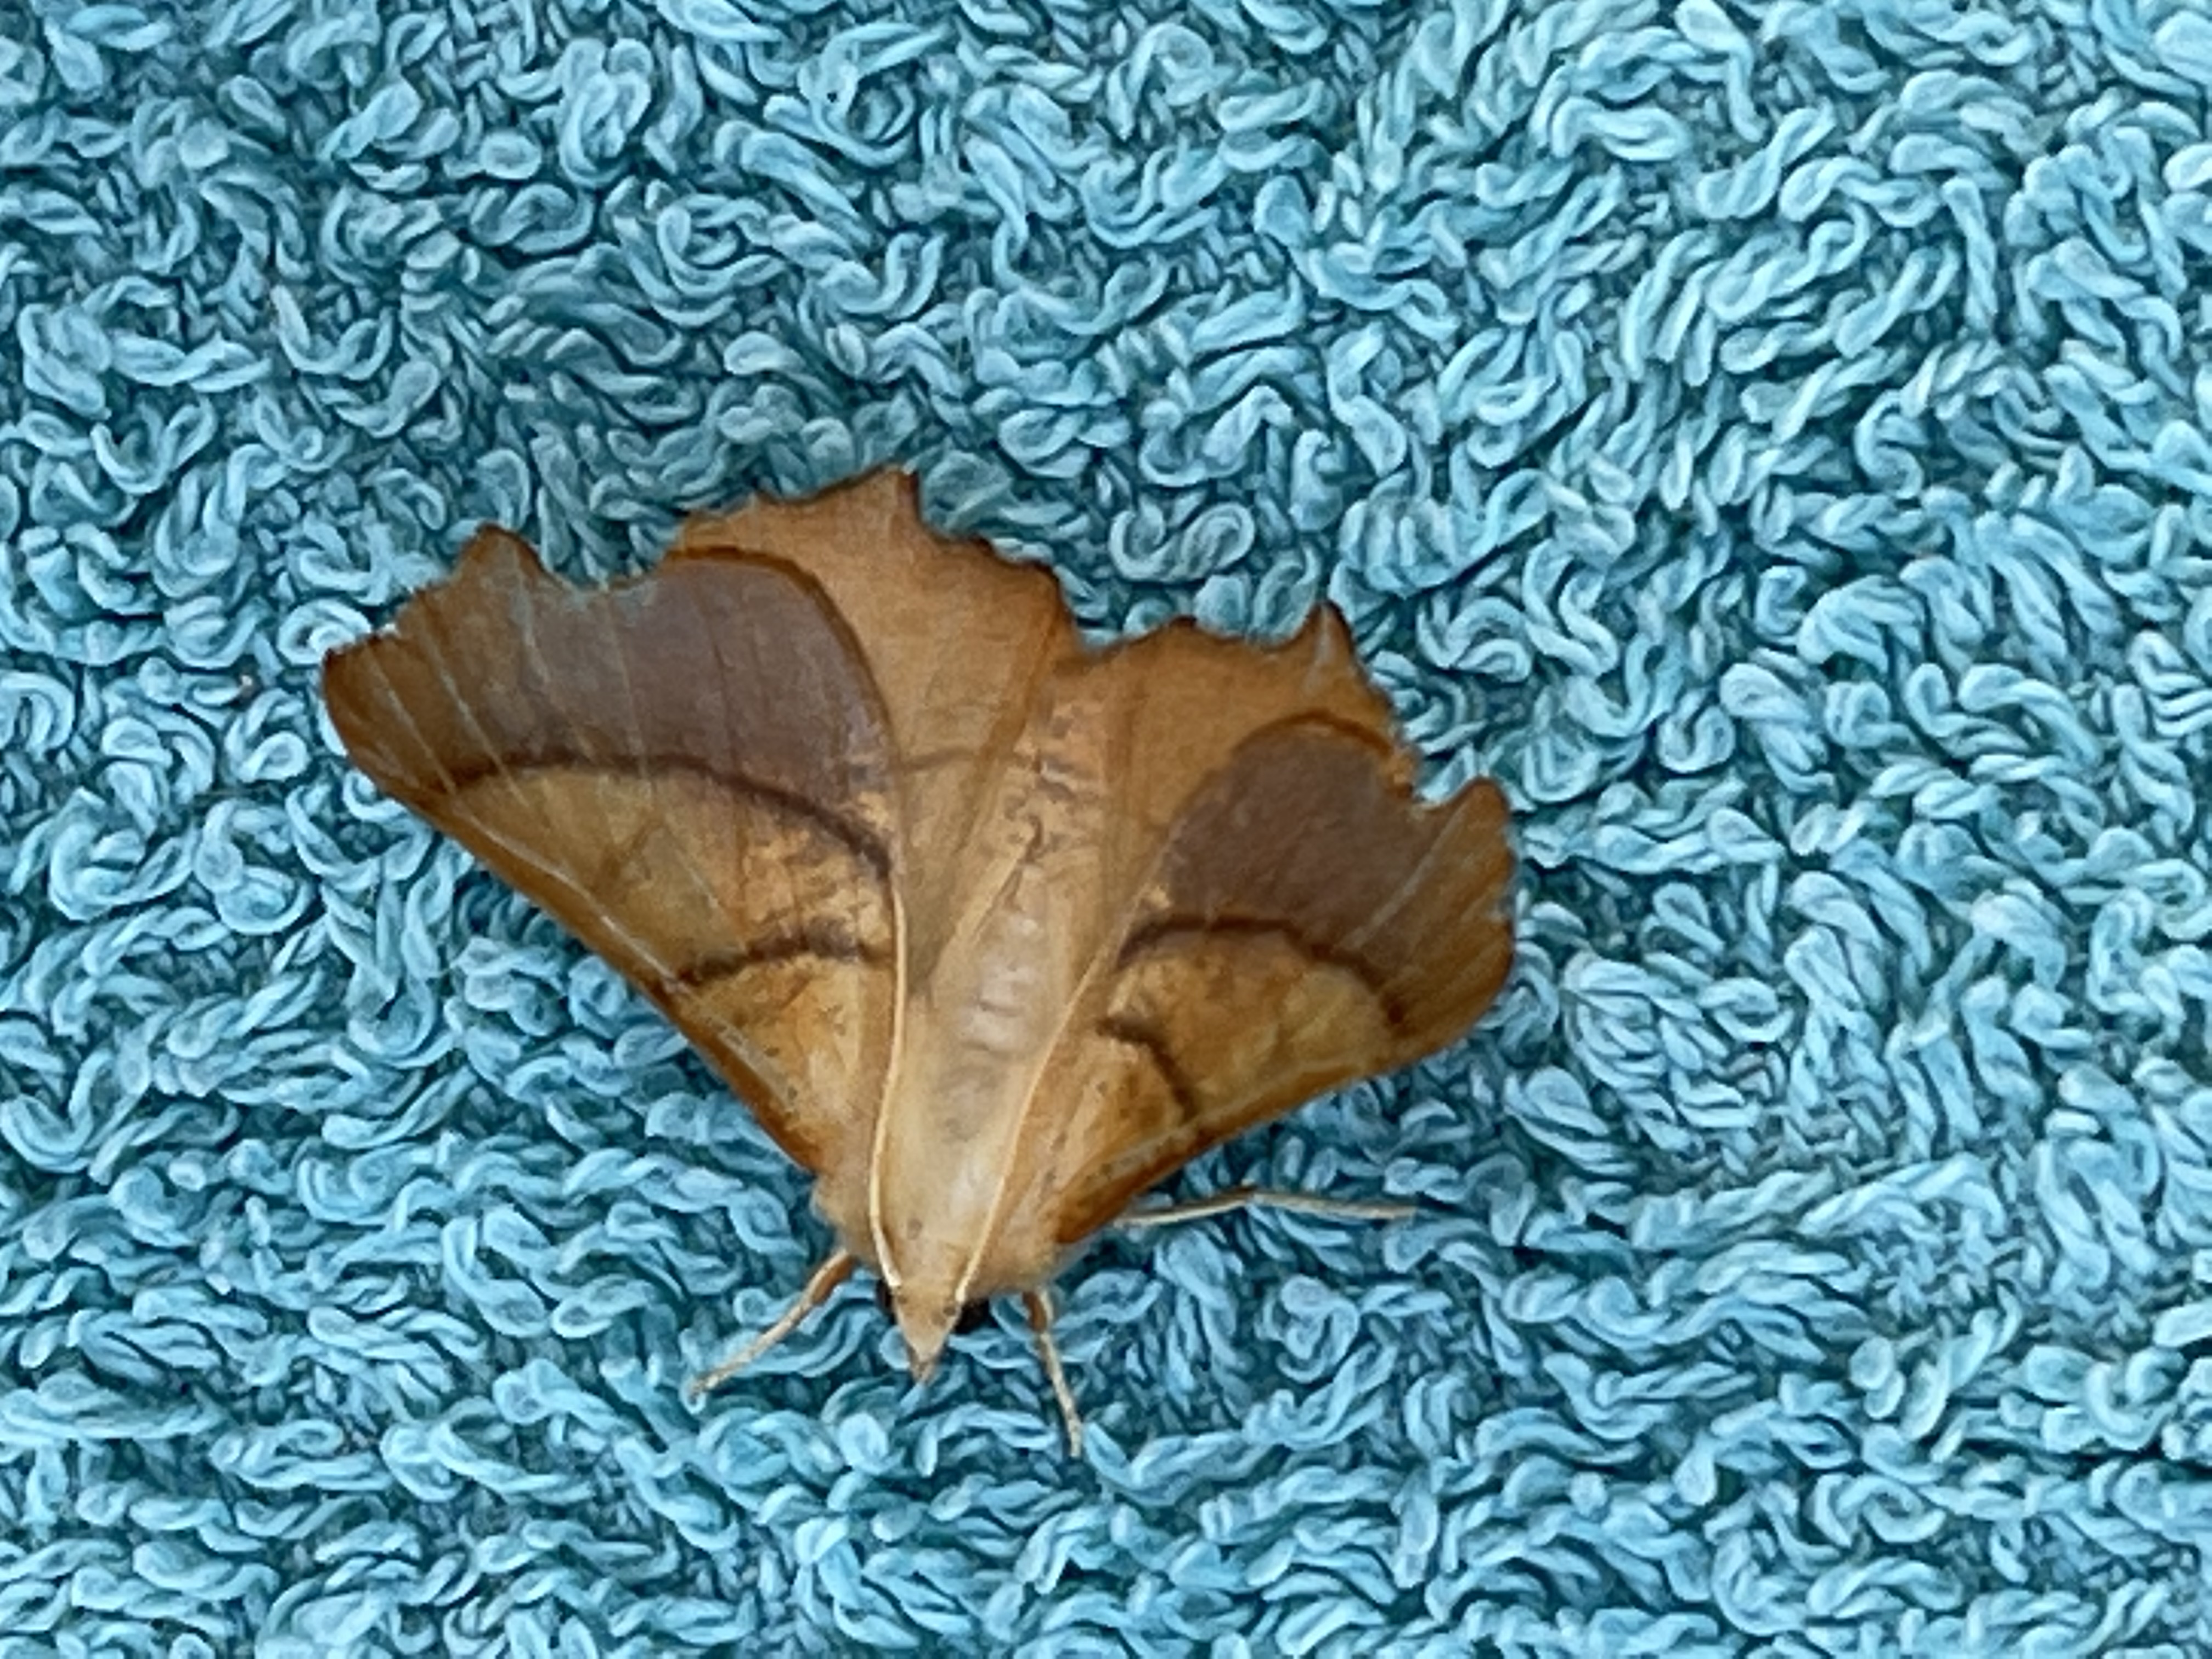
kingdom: Animalia
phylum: Arthropoda
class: Insecta
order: Lepidoptera
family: Geometridae
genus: Ennomos
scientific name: Ennomos fuscantaria
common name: Asketandmåler
